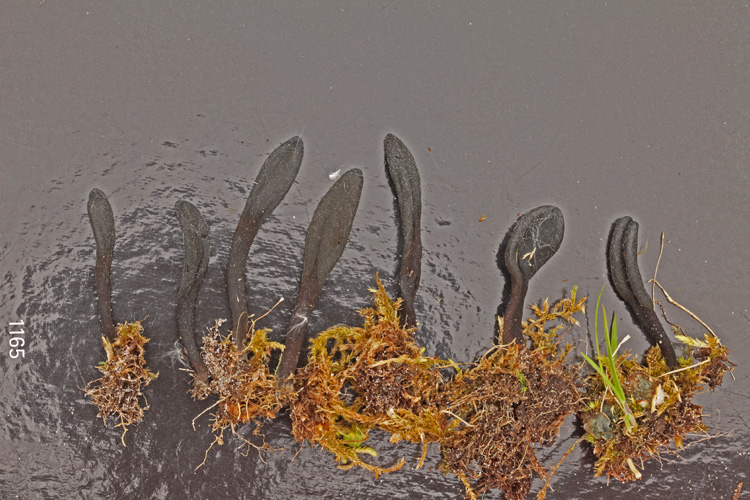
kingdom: Fungi
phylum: Ascomycota
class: Geoglossomycetes
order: Geoglossales
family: Geoglossaceae
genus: Geoglossum
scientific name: Geoglossum starbaeckii
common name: nordlig jordtunge
